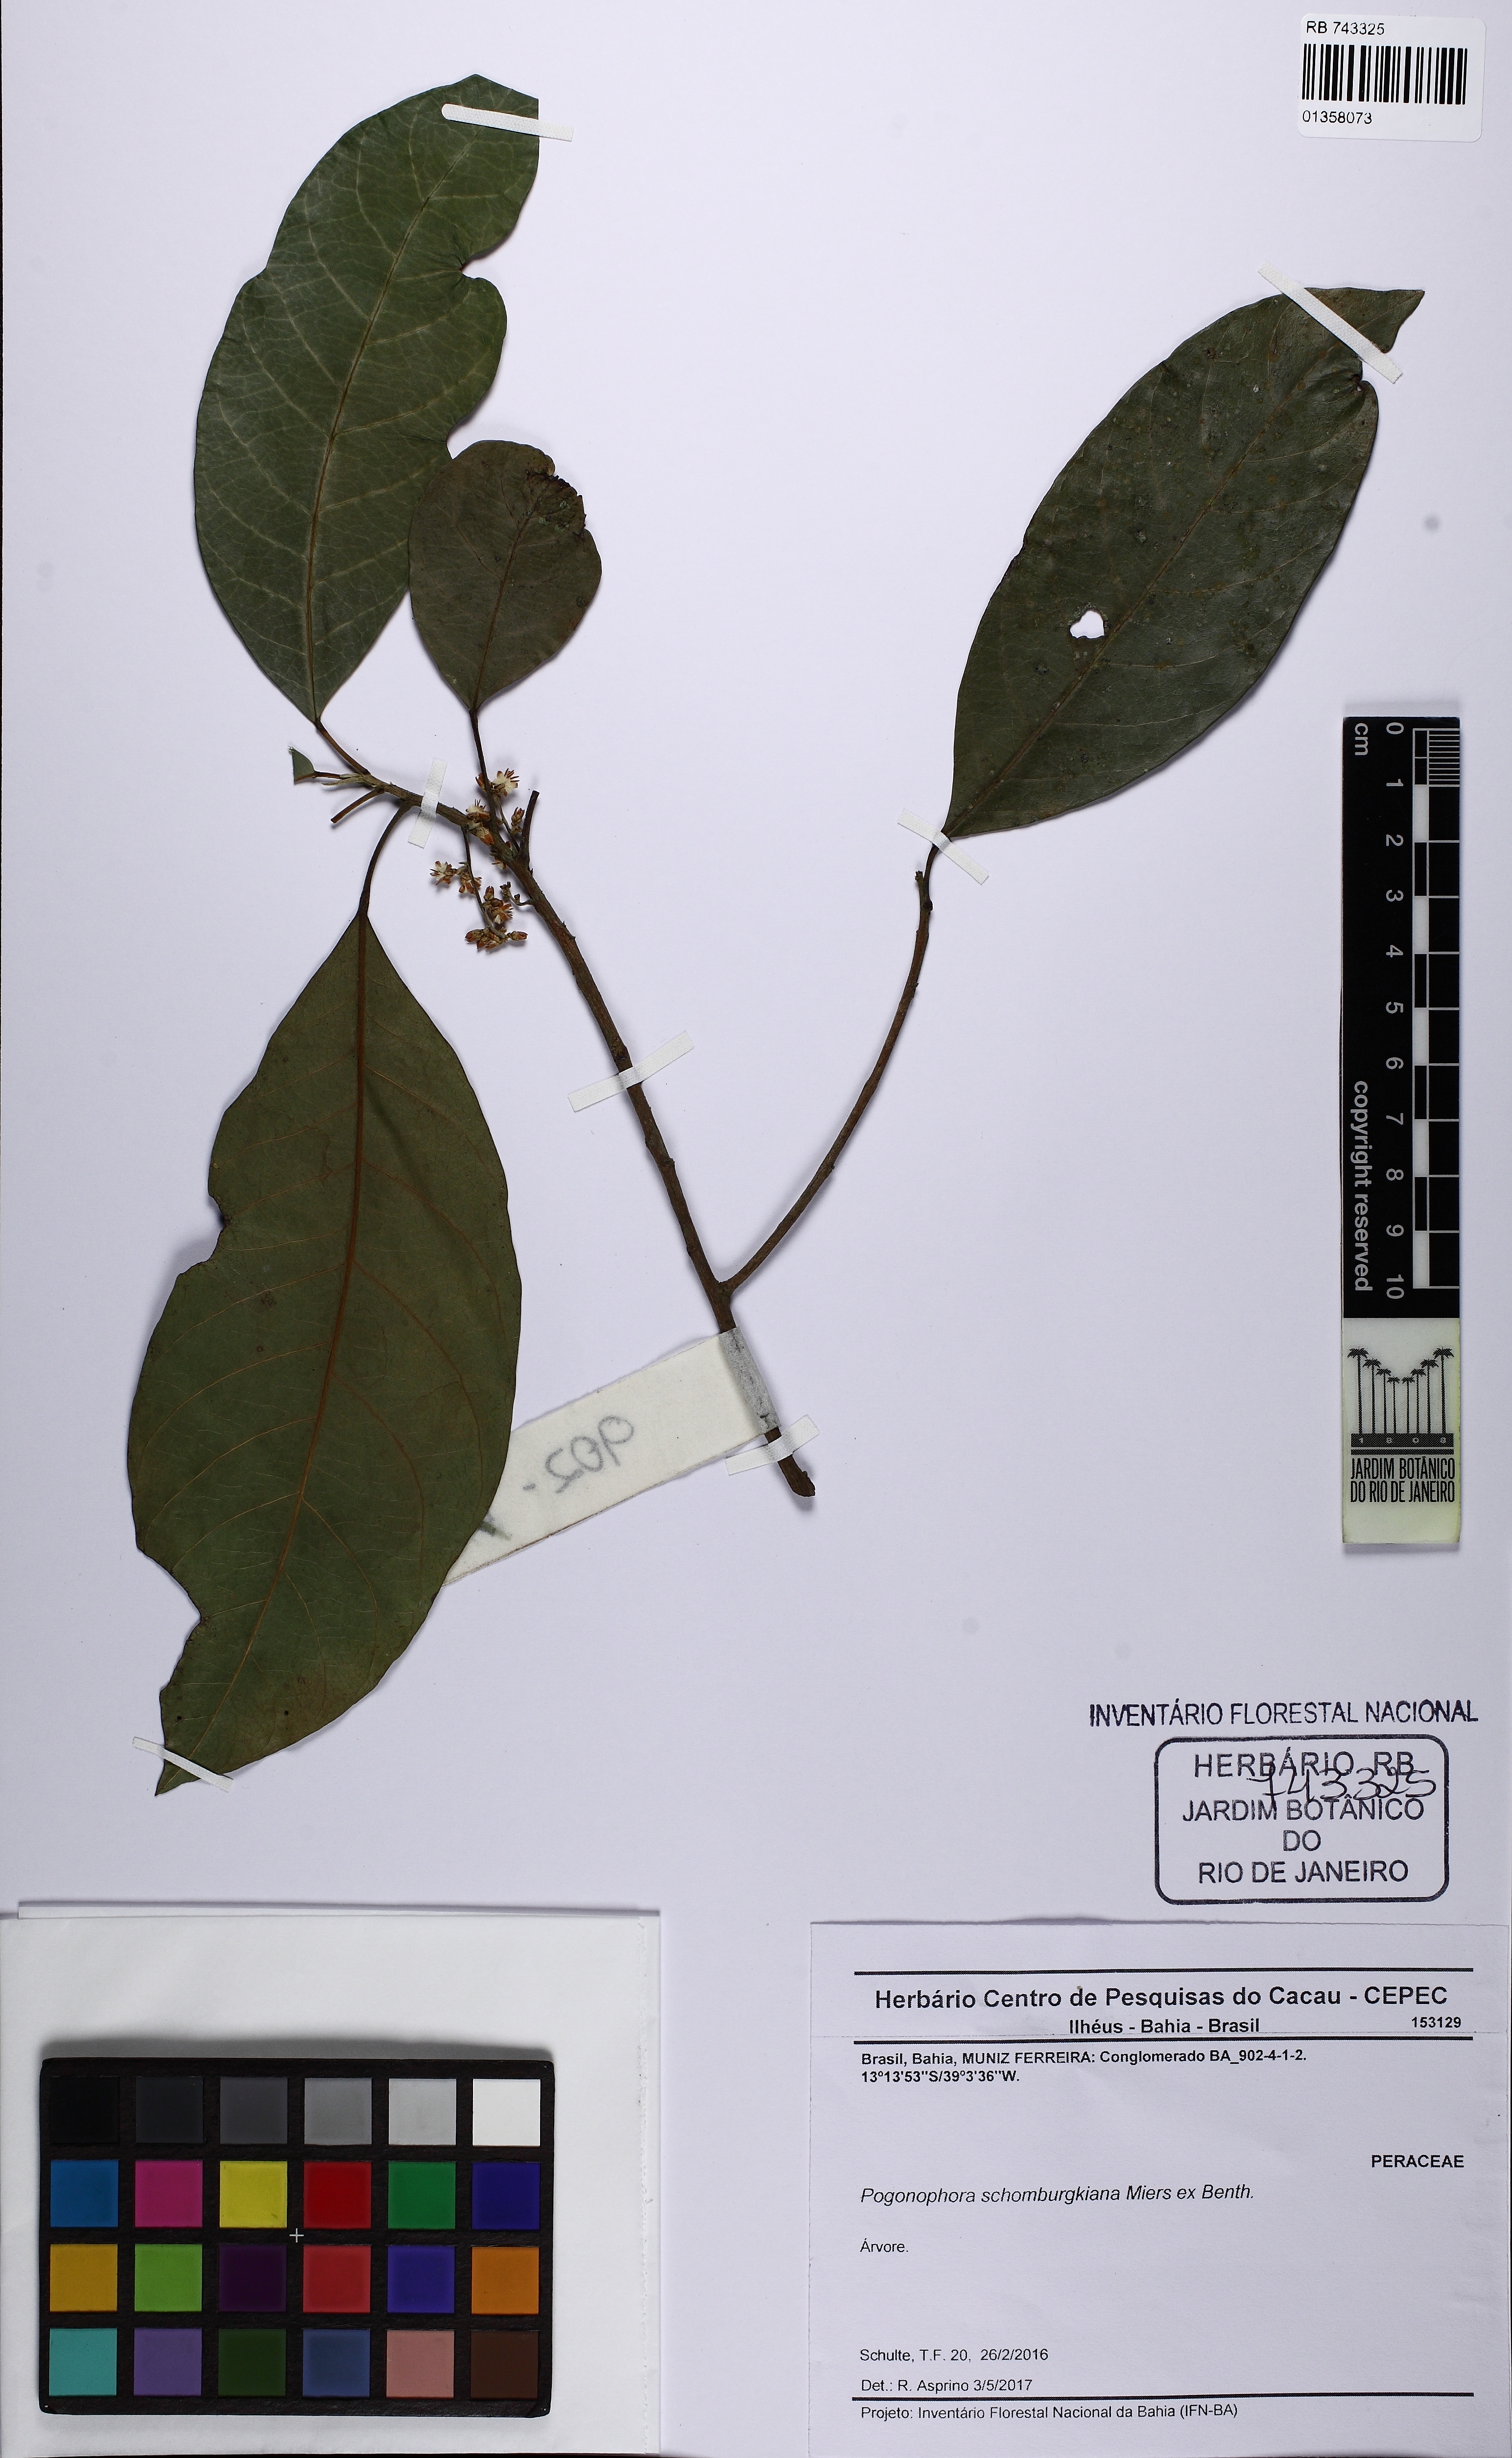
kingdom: Plantae
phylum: Tracheophyta
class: Magnoliopsida
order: Malpighiales
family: Peraceae
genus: Pogonophora
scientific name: Pogonophora schomburgkiana
